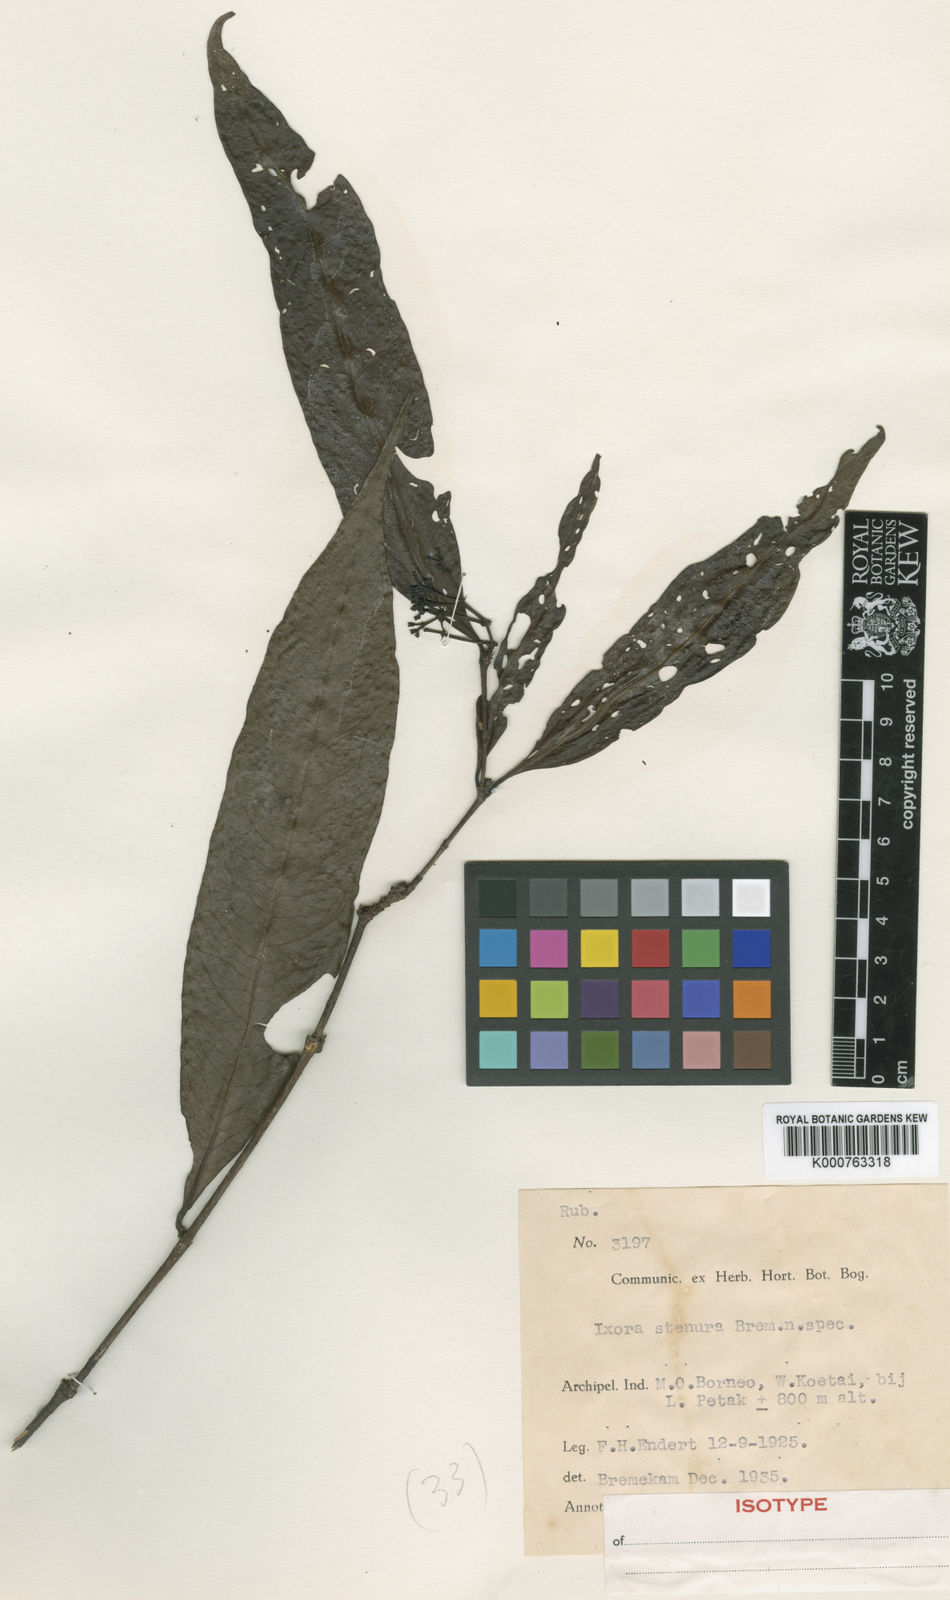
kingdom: Plantae
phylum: Tracheophyta
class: Magnoliopsida
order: Gentianales
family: Rubiaceae
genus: Ixora
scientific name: Ixora stenura
